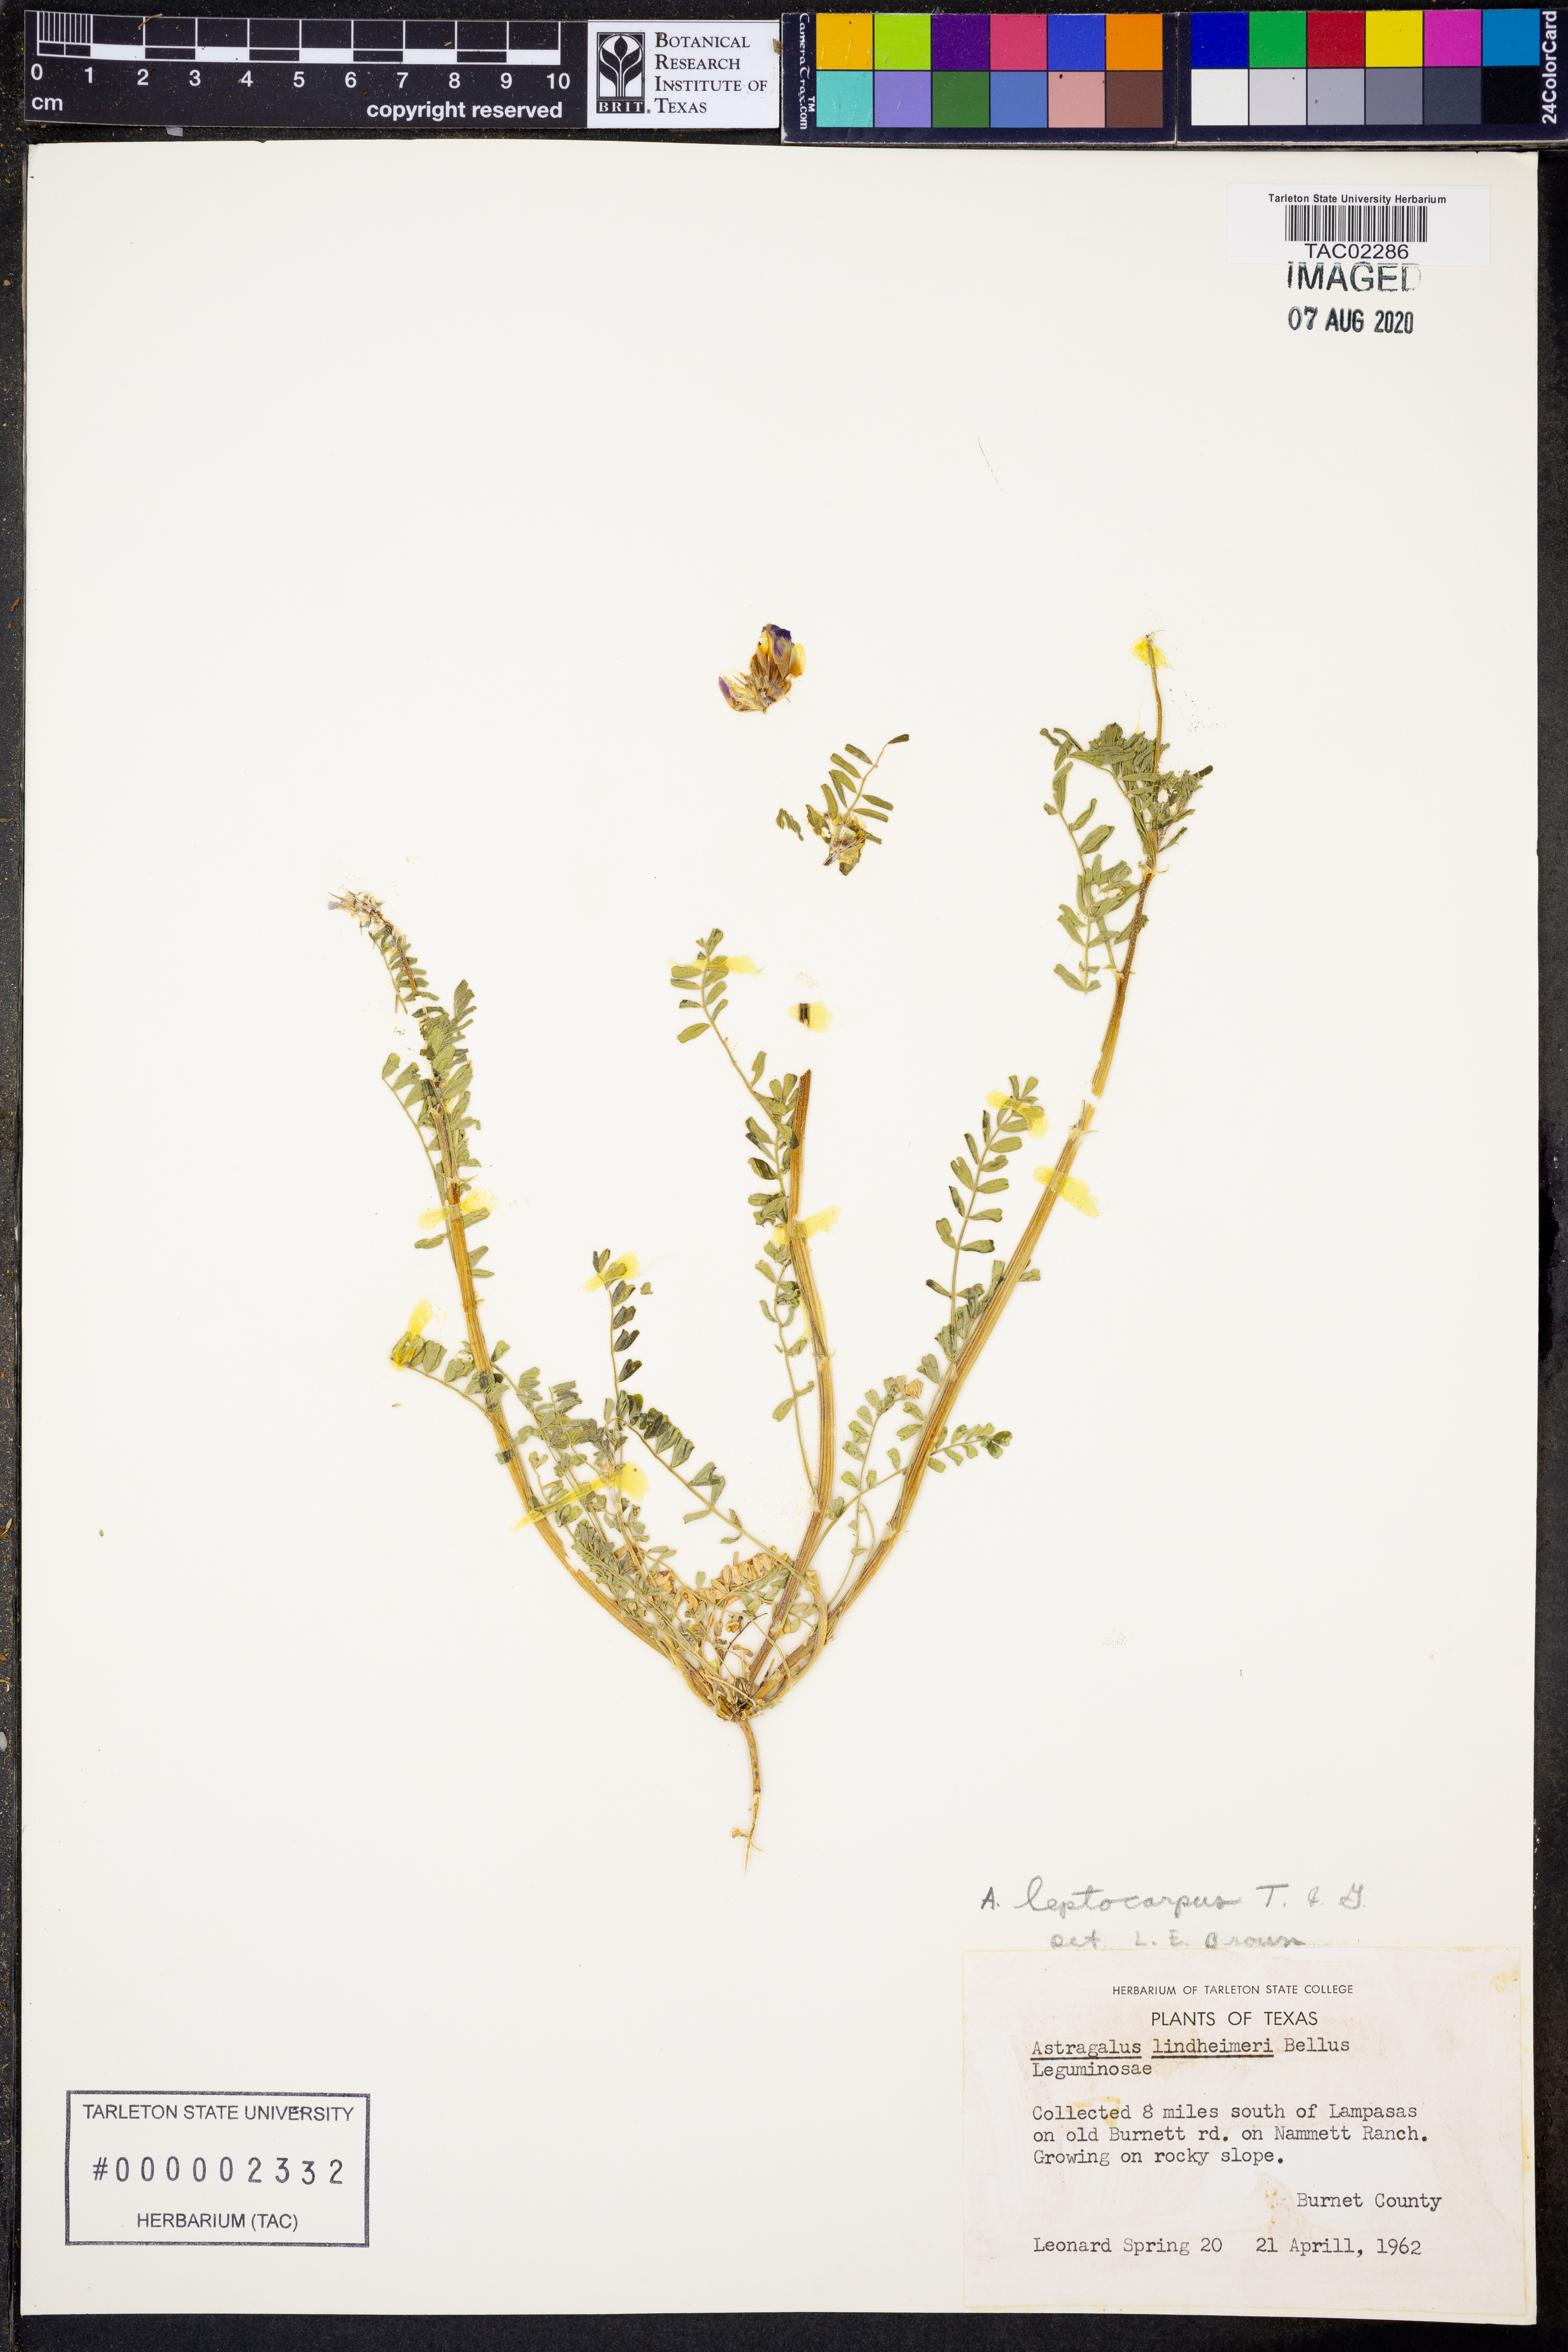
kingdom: Plantae
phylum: Tracheophyta
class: Magnoliopsida
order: Fabales
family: Fabaceae
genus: Astragalus
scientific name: Astragalus leptocarpus
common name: Bodkin milk-vetch
